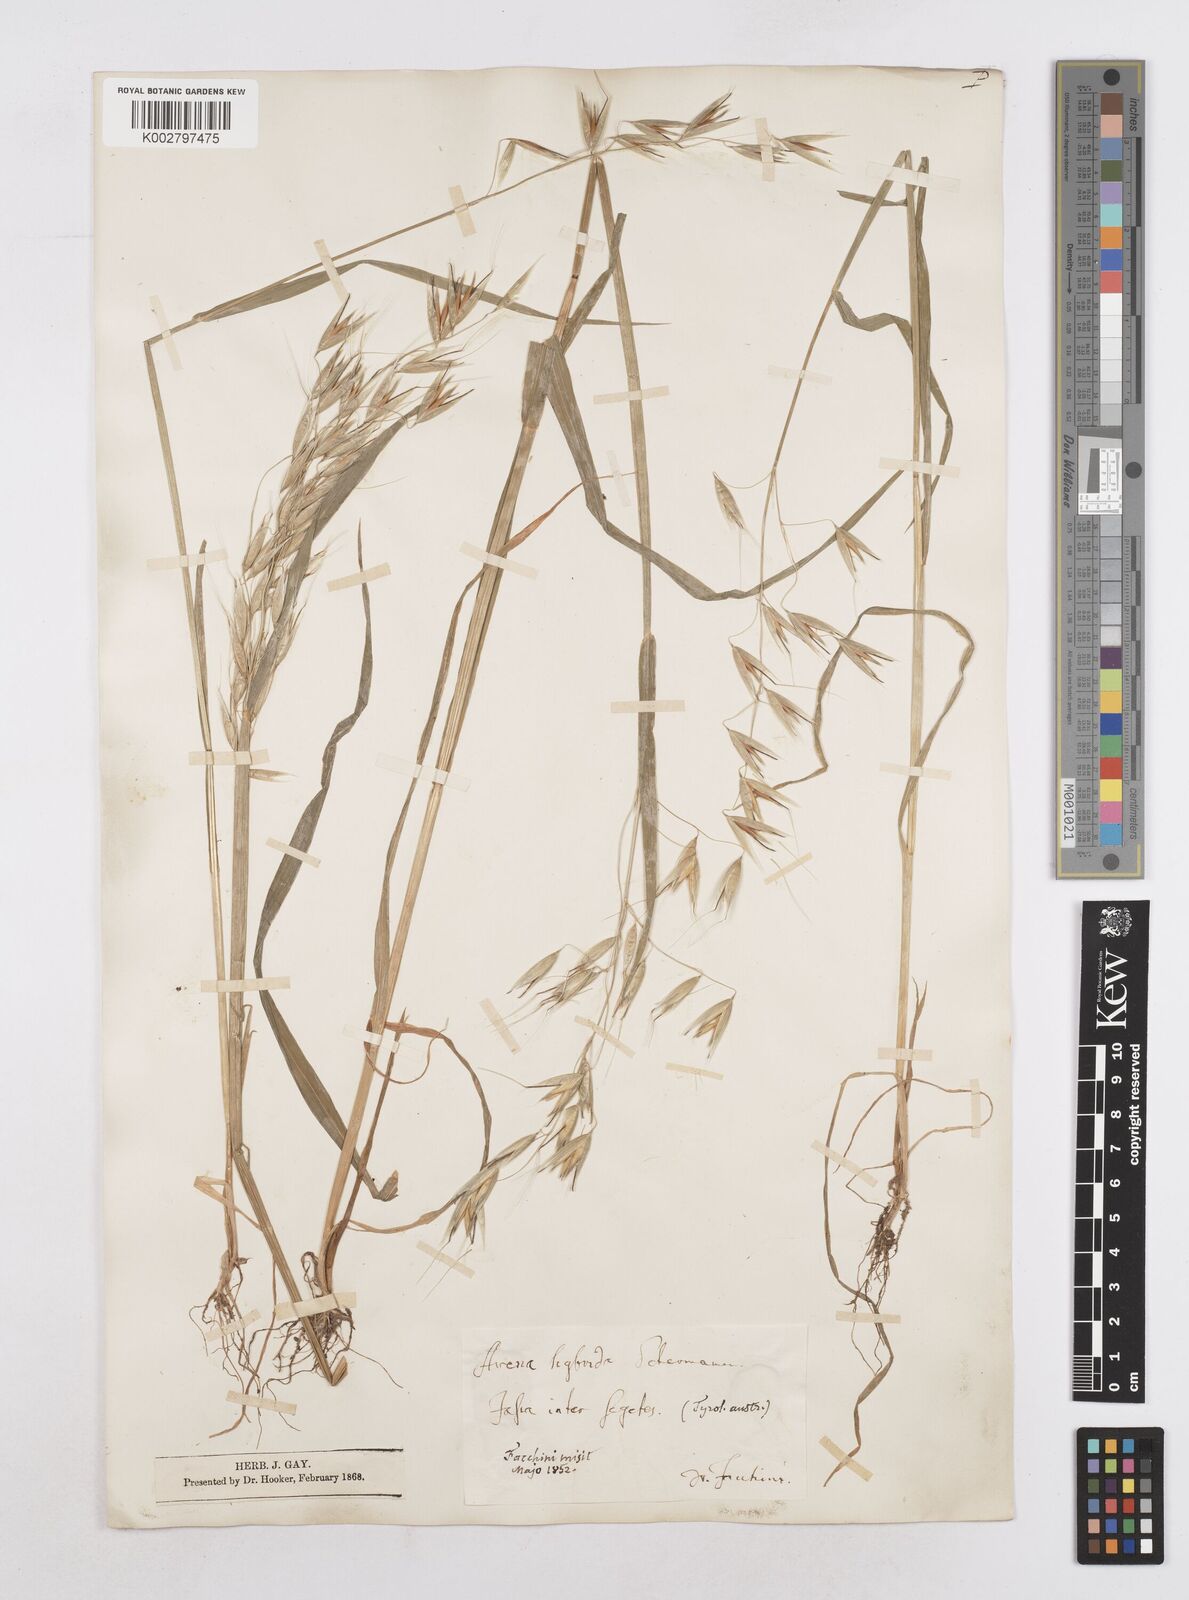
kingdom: Plantae
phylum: Tracheophyta
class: Liliopsida
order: Poales
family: Poaceae
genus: Avena
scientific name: Avena fatua
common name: Wild oat
